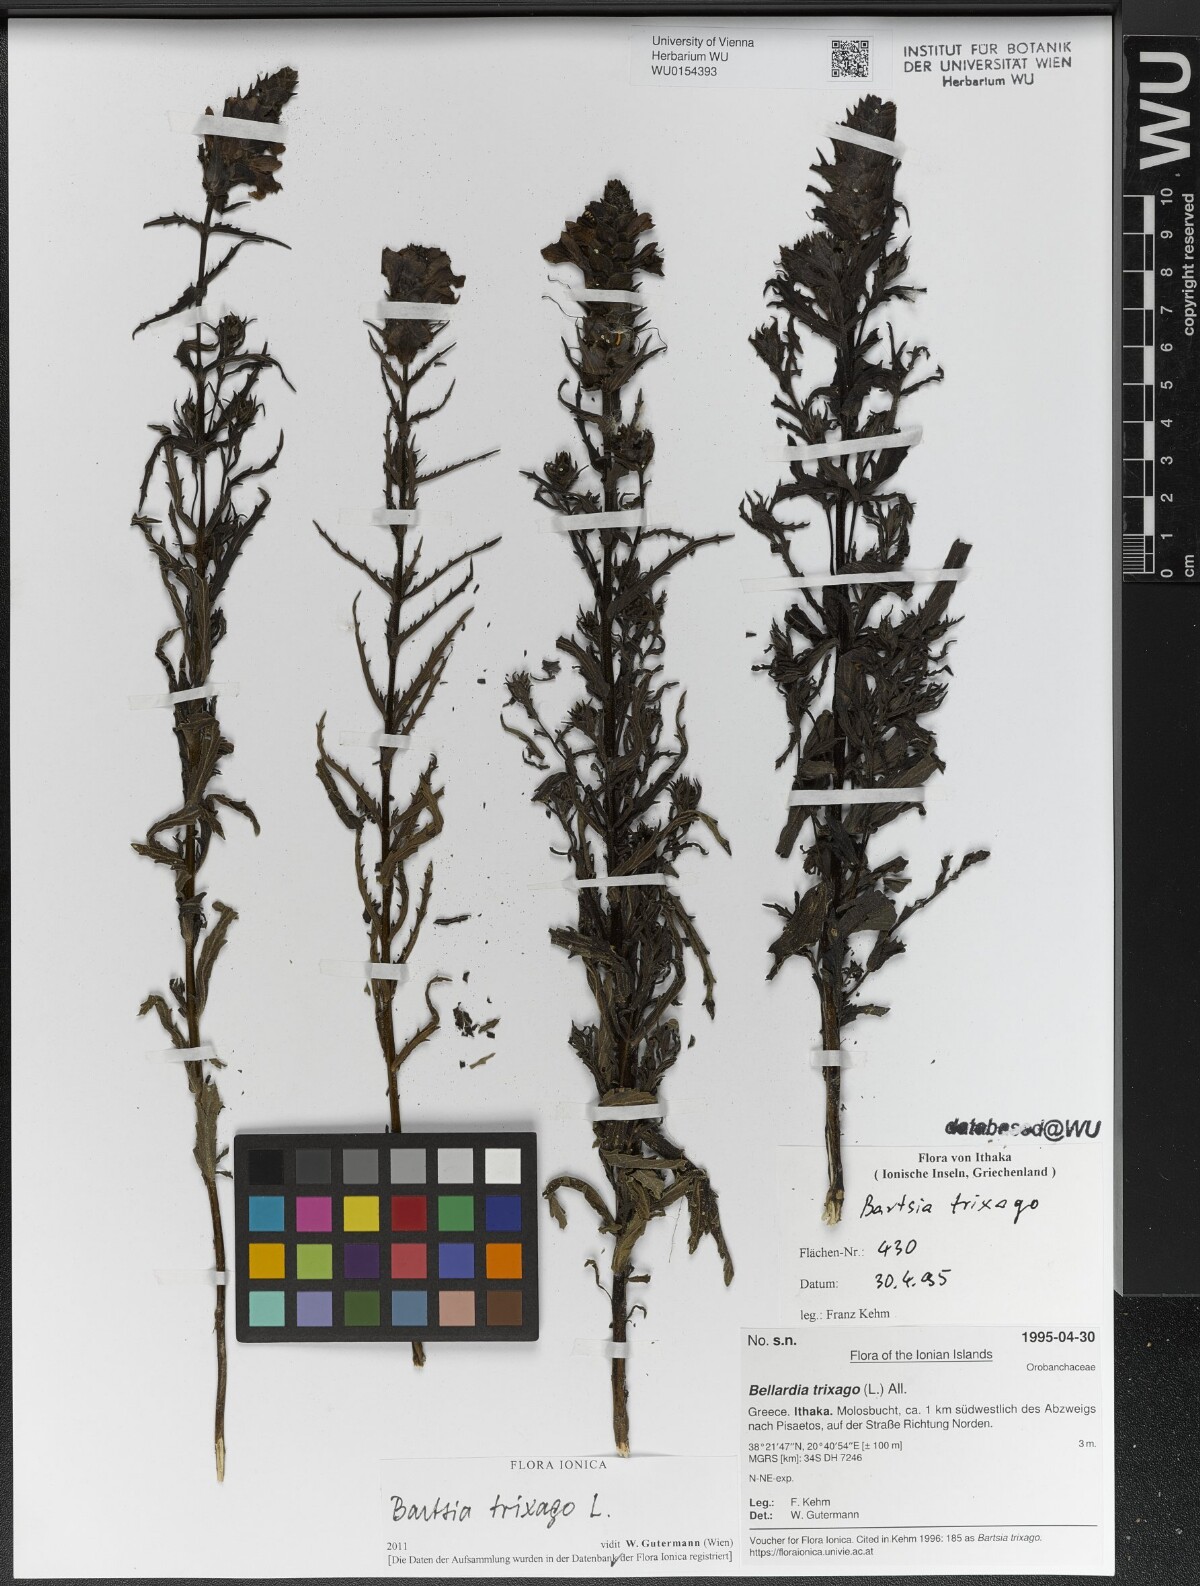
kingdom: Plantae
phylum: Tracheophyta
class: Magnoliopsida
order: Lamiales
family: Orobanchaceae
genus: Bellardia
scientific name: Bellardia trixago
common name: Mediterranean lineseed
